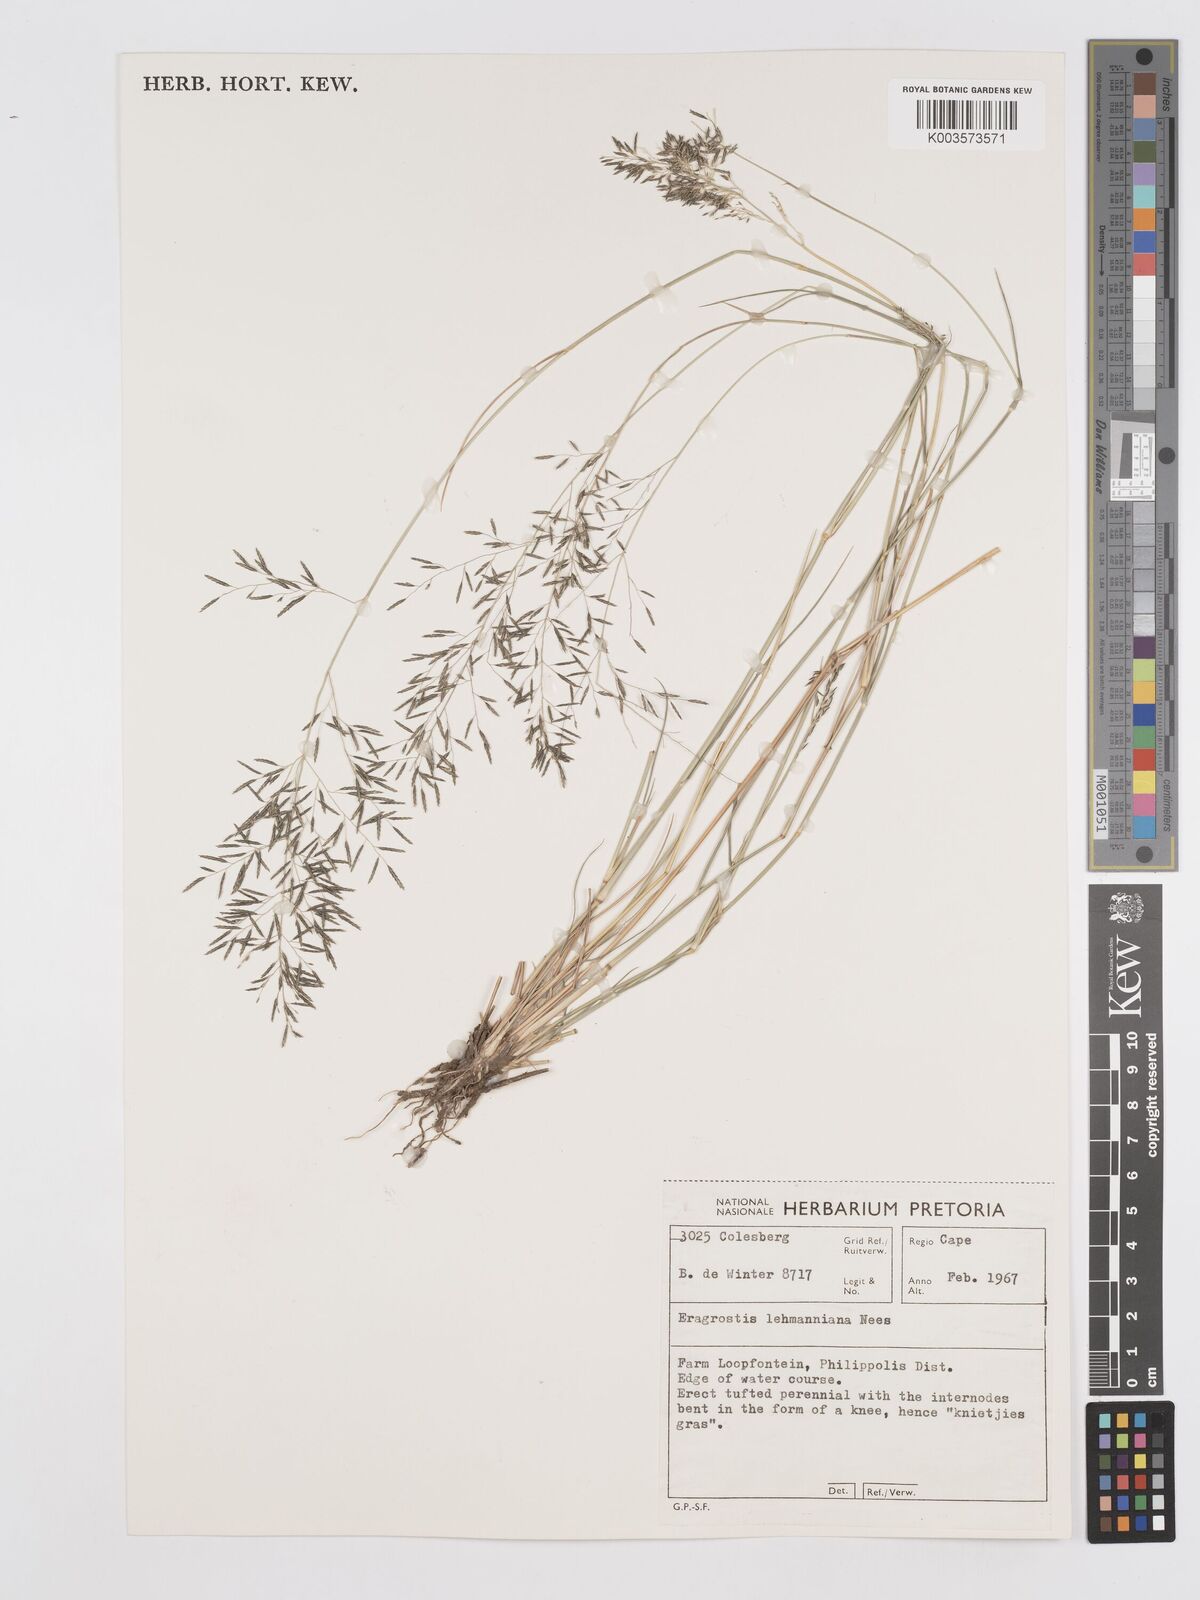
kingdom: Plantae
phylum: Tracheophyta
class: Liliopsida
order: Poales
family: Poaceae
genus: Eragrostis
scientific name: Eragrostis lehmanniana
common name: Lehmann lovegrass
